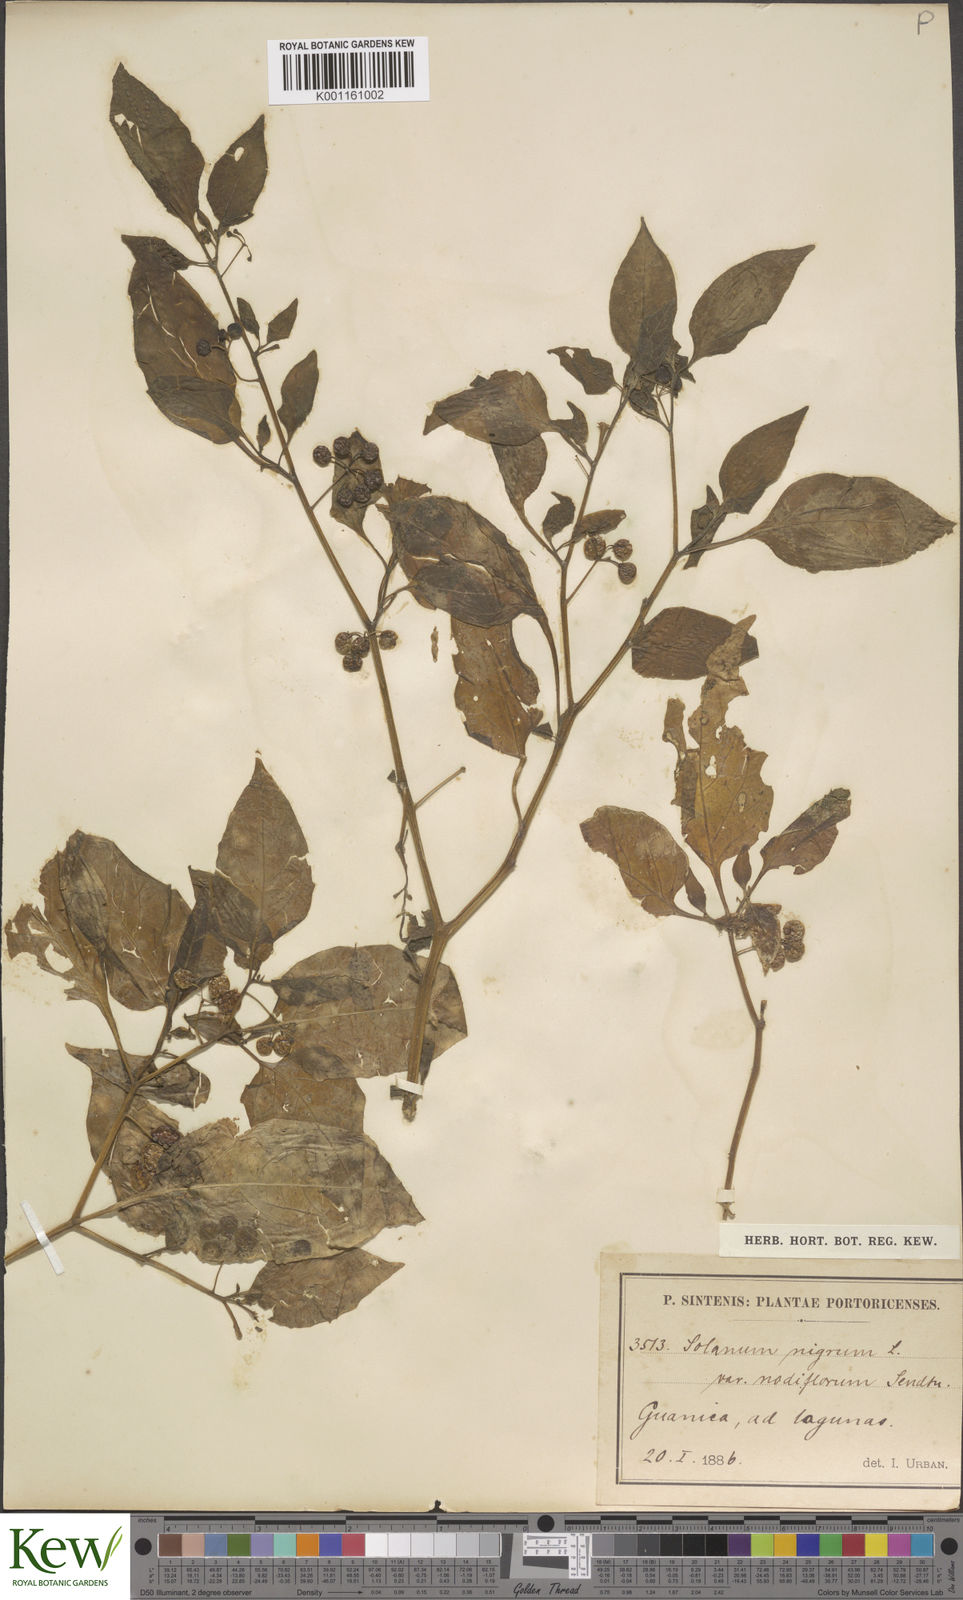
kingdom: Plantae
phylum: Tracheophyta
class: Magnoliopsida
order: Solanales
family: Solanaceae
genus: Solanum
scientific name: Solanum americanum
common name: American black nightshade
